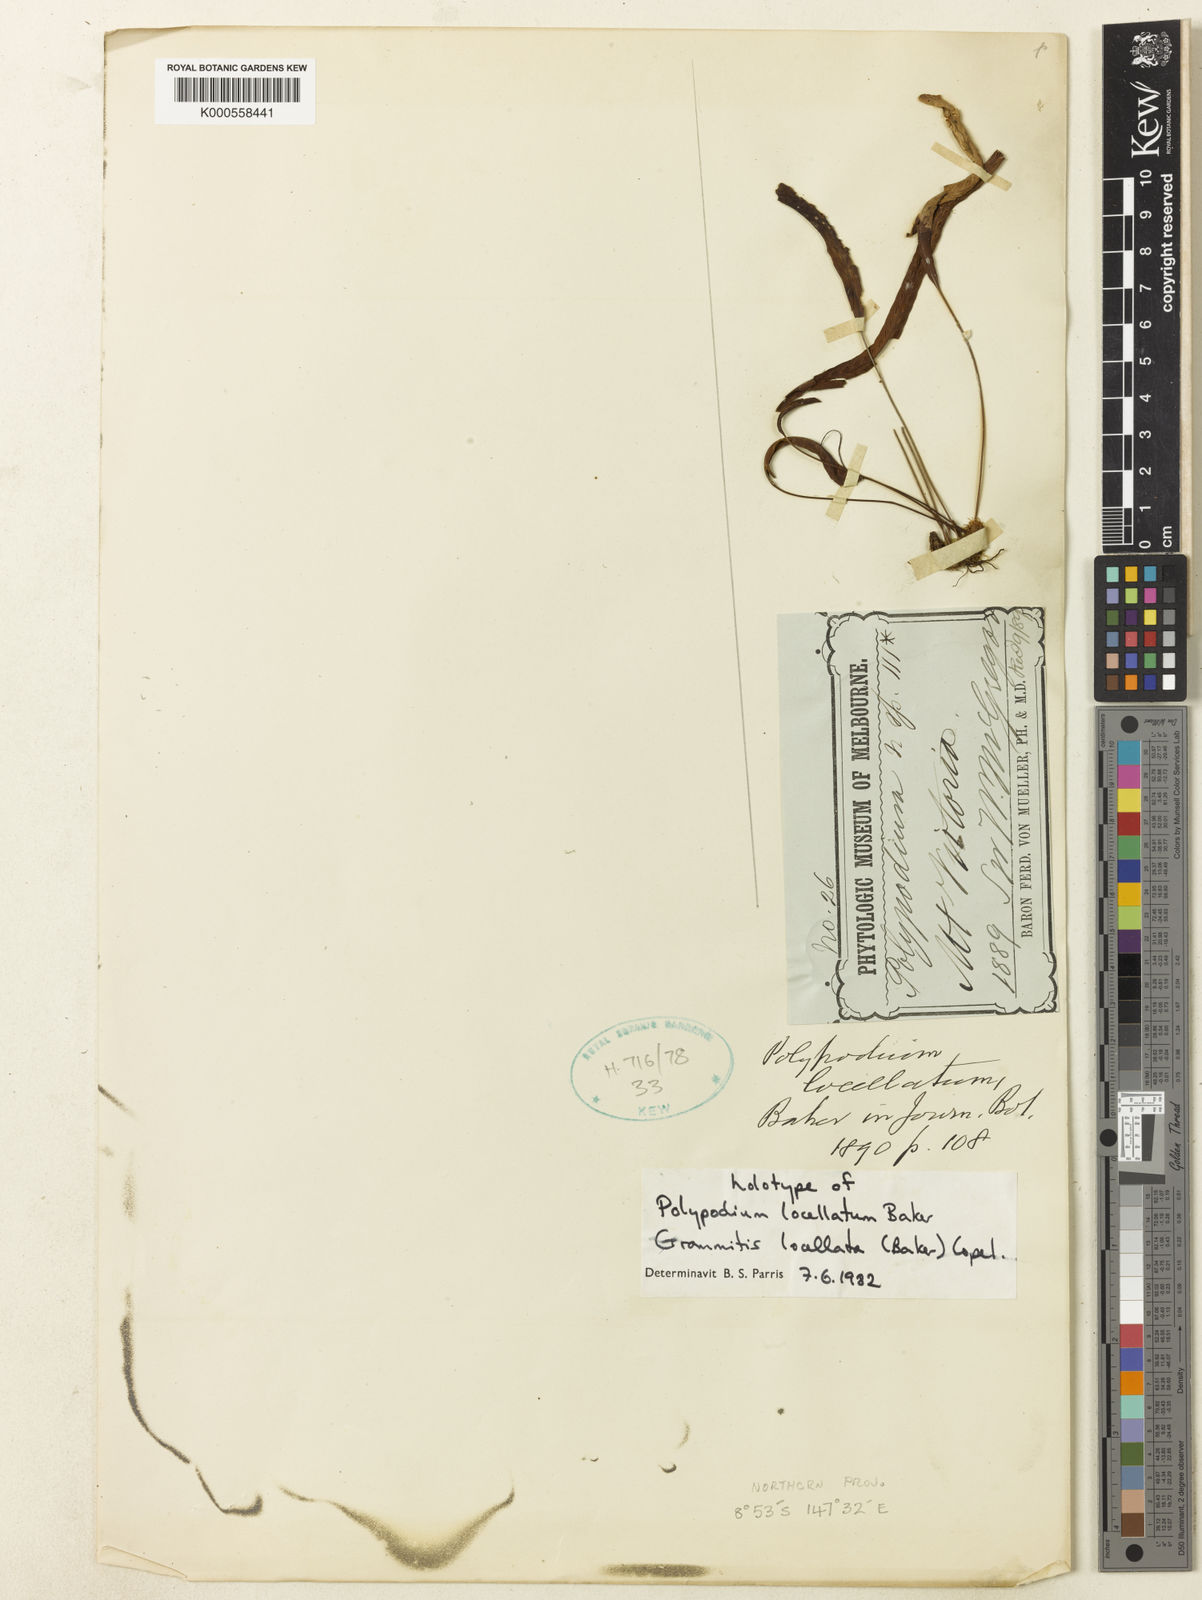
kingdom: Plantae
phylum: Tracheophyta
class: Polypodiopsida
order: Polypodiales
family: Polypodiaceae
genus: Oreogrammitis
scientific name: Oreogrammitis locellata
